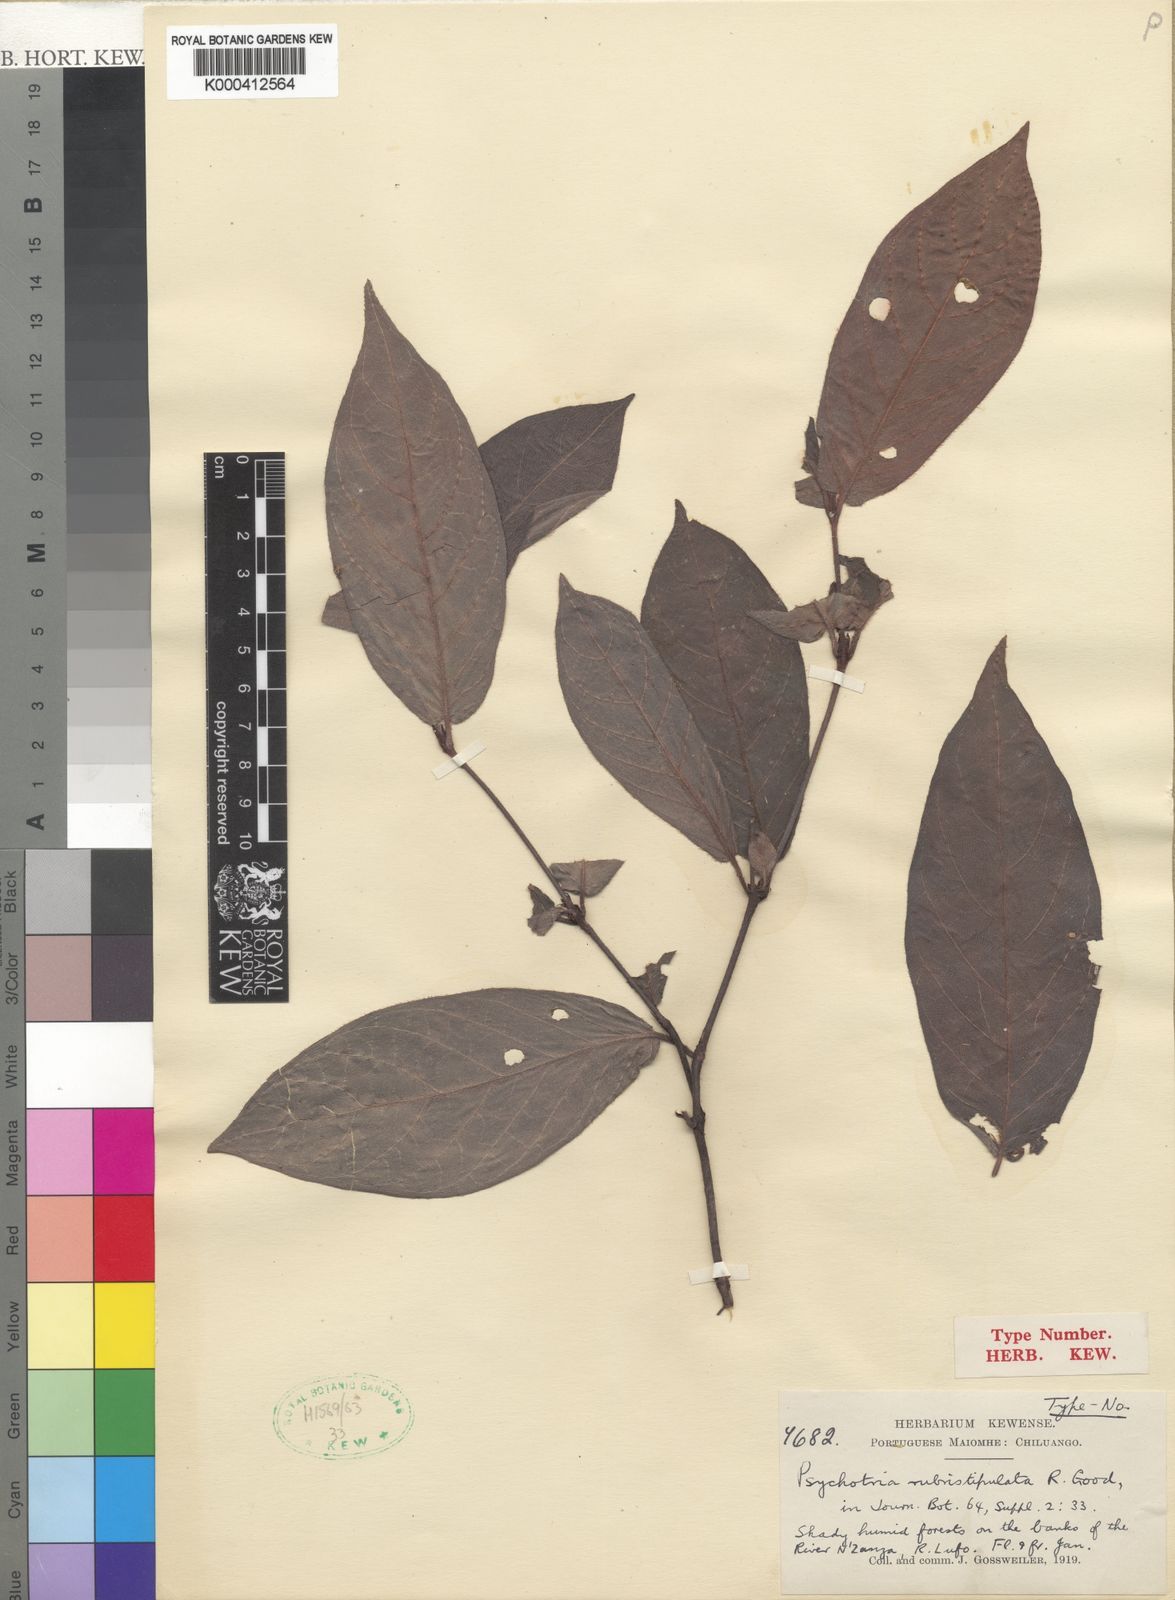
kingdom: Plantae
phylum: Tracheophyta
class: Magnoliopsida
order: Gentianales
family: Rubiaceae
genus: Psychotria
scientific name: Psychotria rubristipulata
